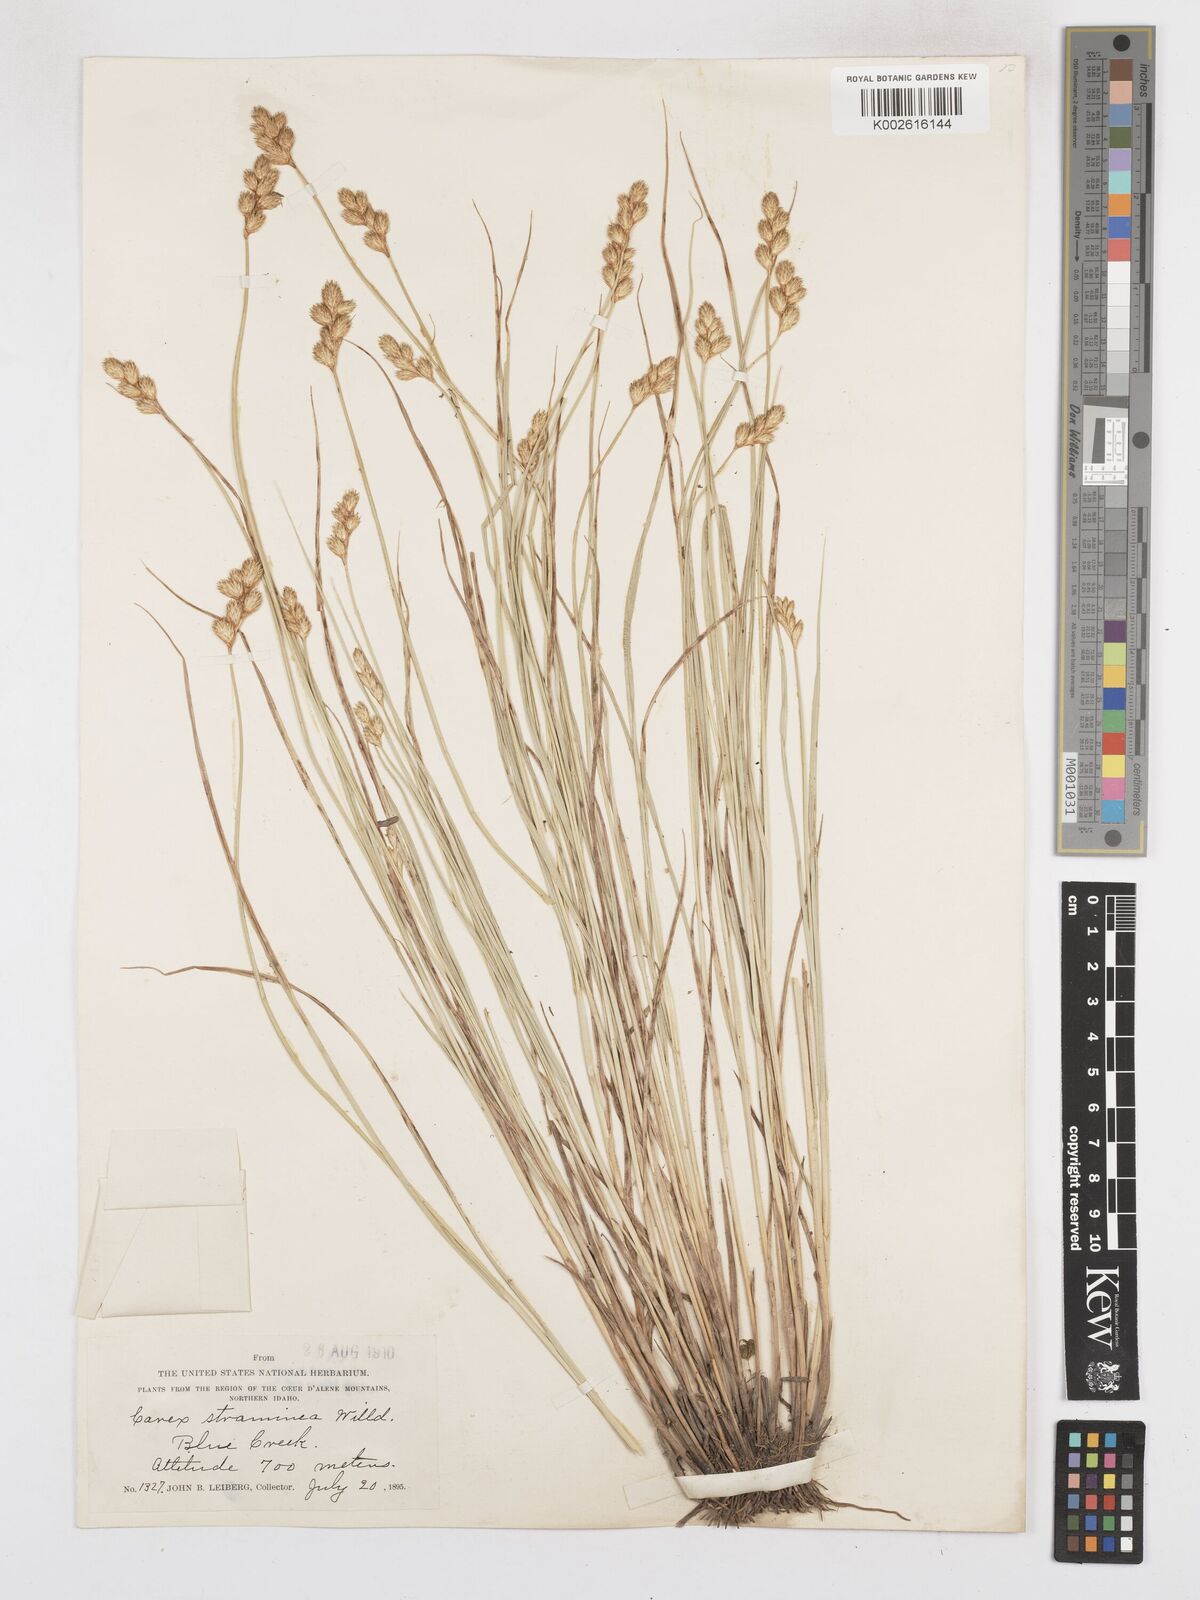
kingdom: Plantae
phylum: Tracheophyta
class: Liliopsida
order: Poales
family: Cyperaceae
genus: Carex
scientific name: Carex brevior
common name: Brevior sedge
